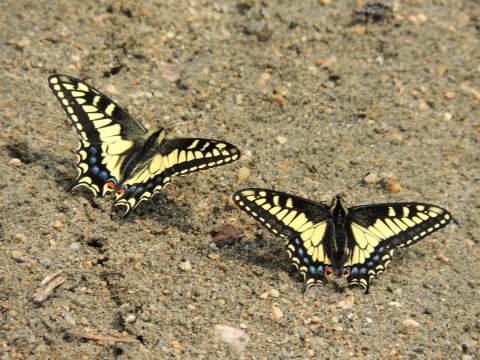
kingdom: Animalia
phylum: Arthropoda
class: Insecta
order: Lepidoptera
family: Papilionidae
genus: Papilio
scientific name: Papilio zelicaon
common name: Anise Swallowtail
